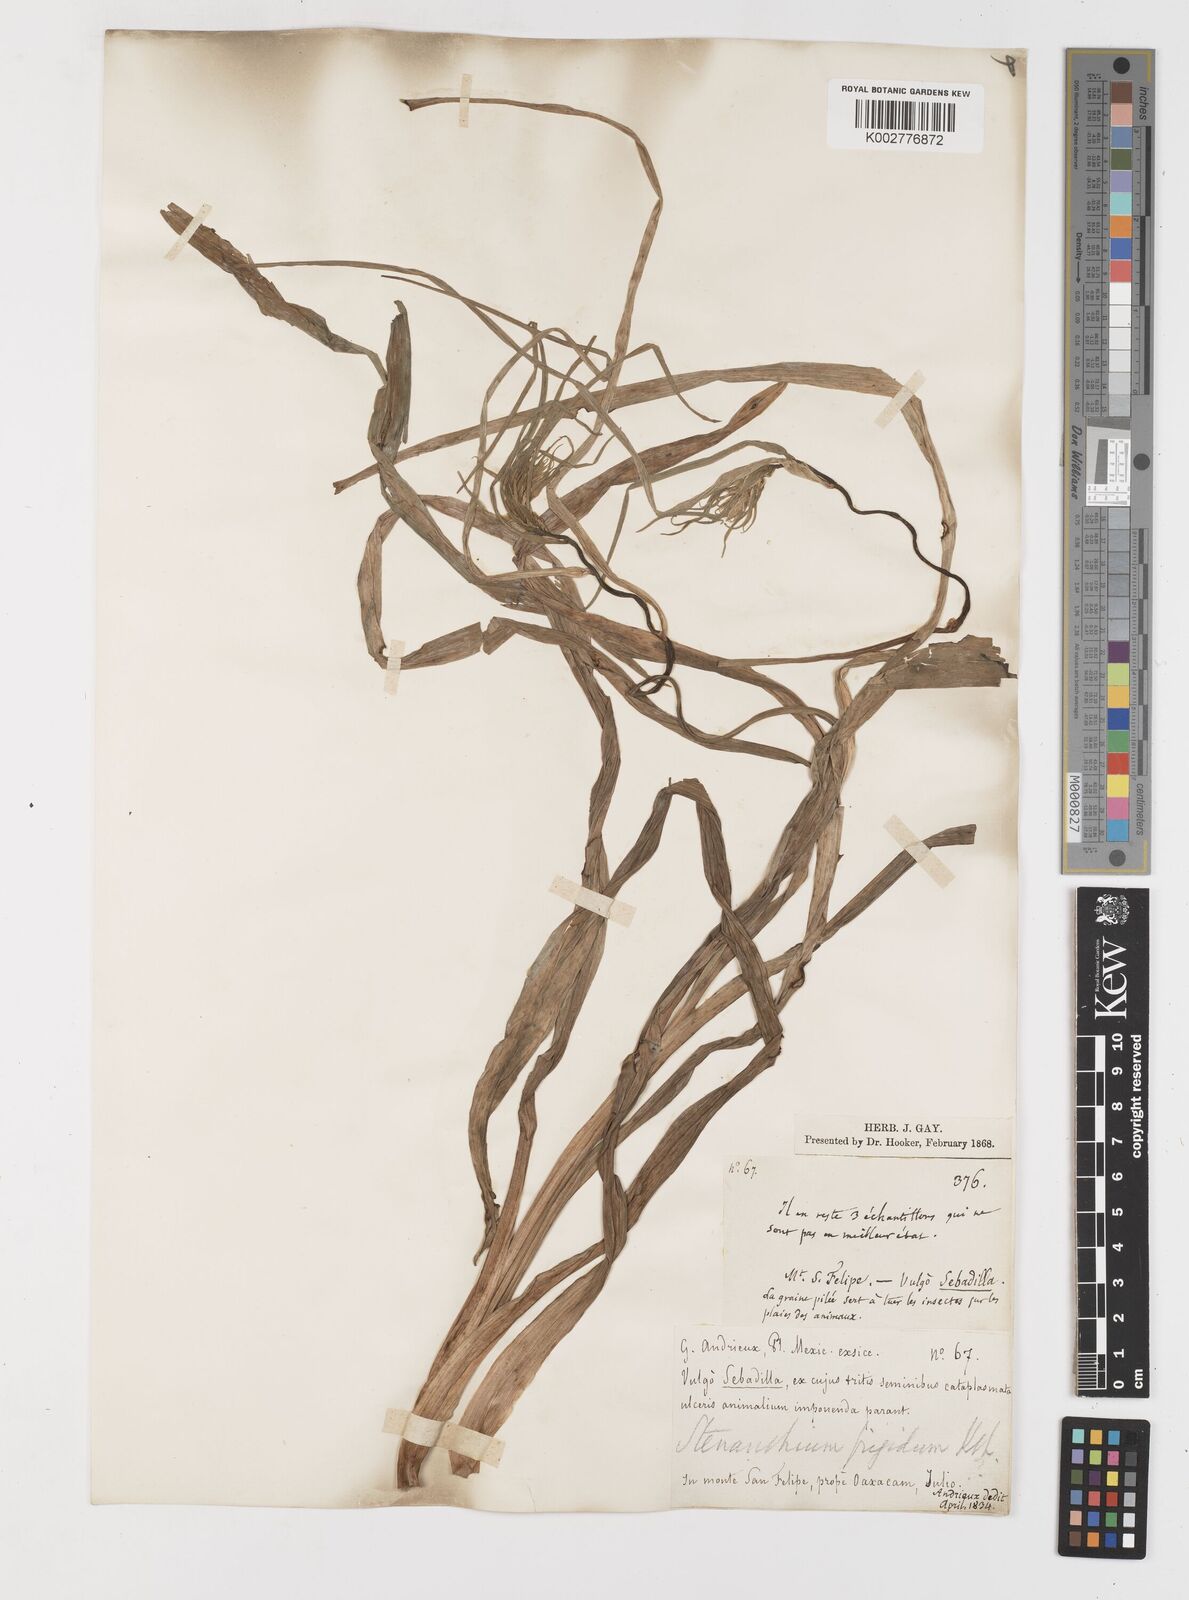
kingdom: Plantae
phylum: Tracheophyta
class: Liliopsida
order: Liliales
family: Melanthiaceae
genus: Anticlea
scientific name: Anticlea frigida
